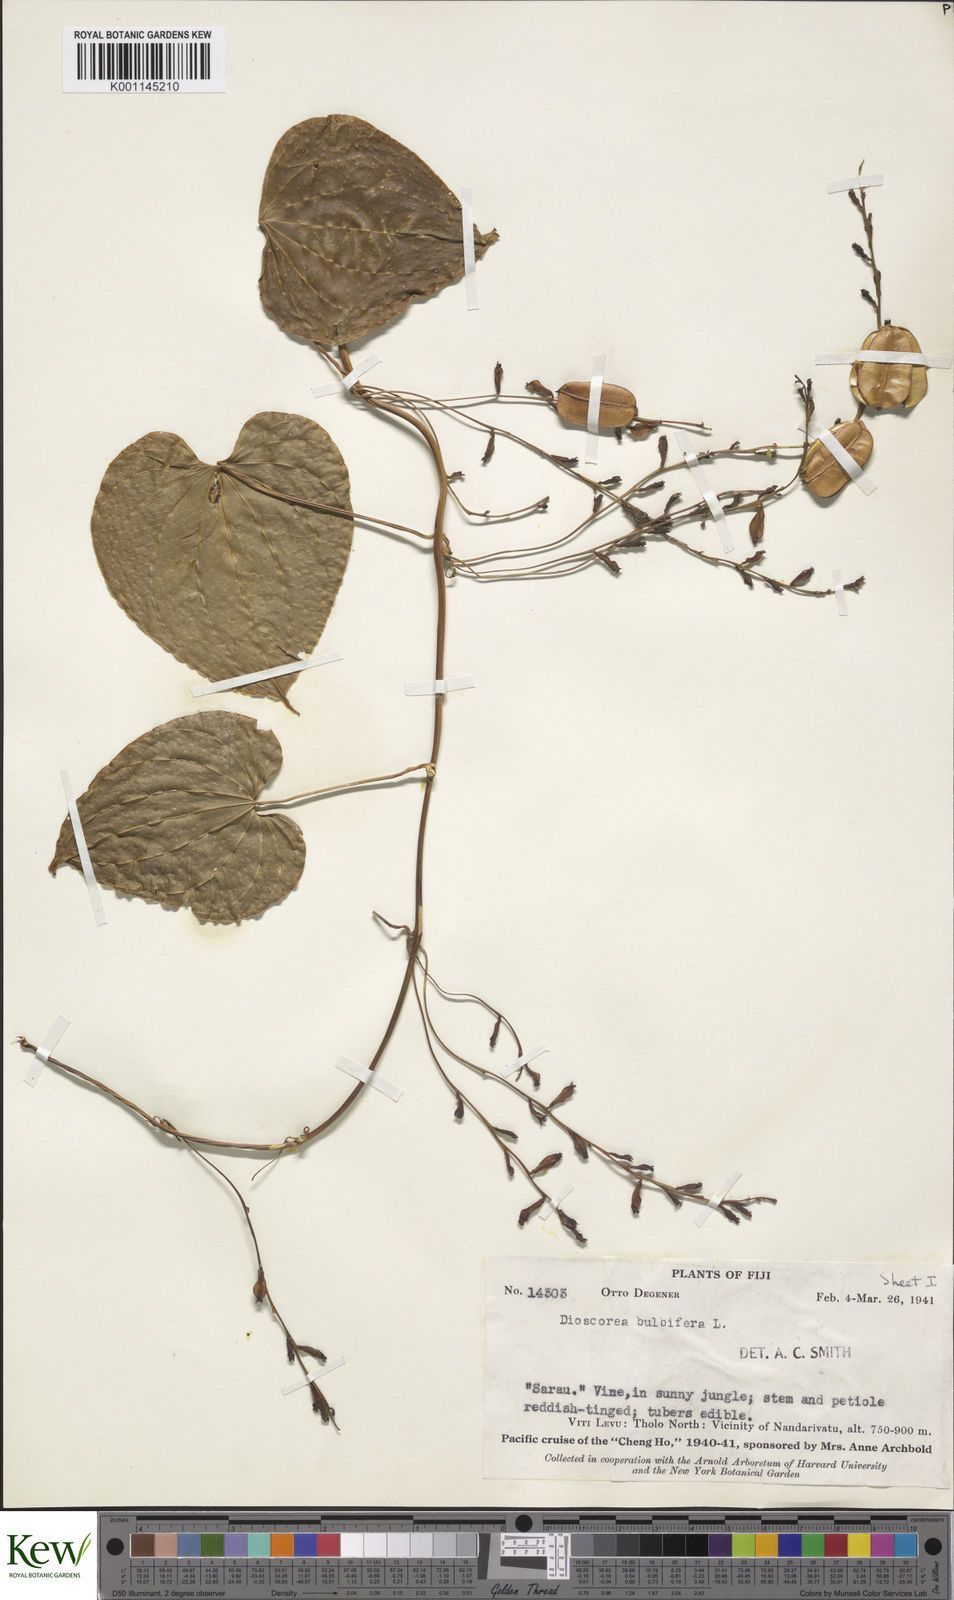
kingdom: Plantae
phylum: Tracheophyta
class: Liliopsida
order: Dioscoreales
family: Dioscoreaceae
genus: Dioscorea
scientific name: Dioscorea bulbifera
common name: Air yam
